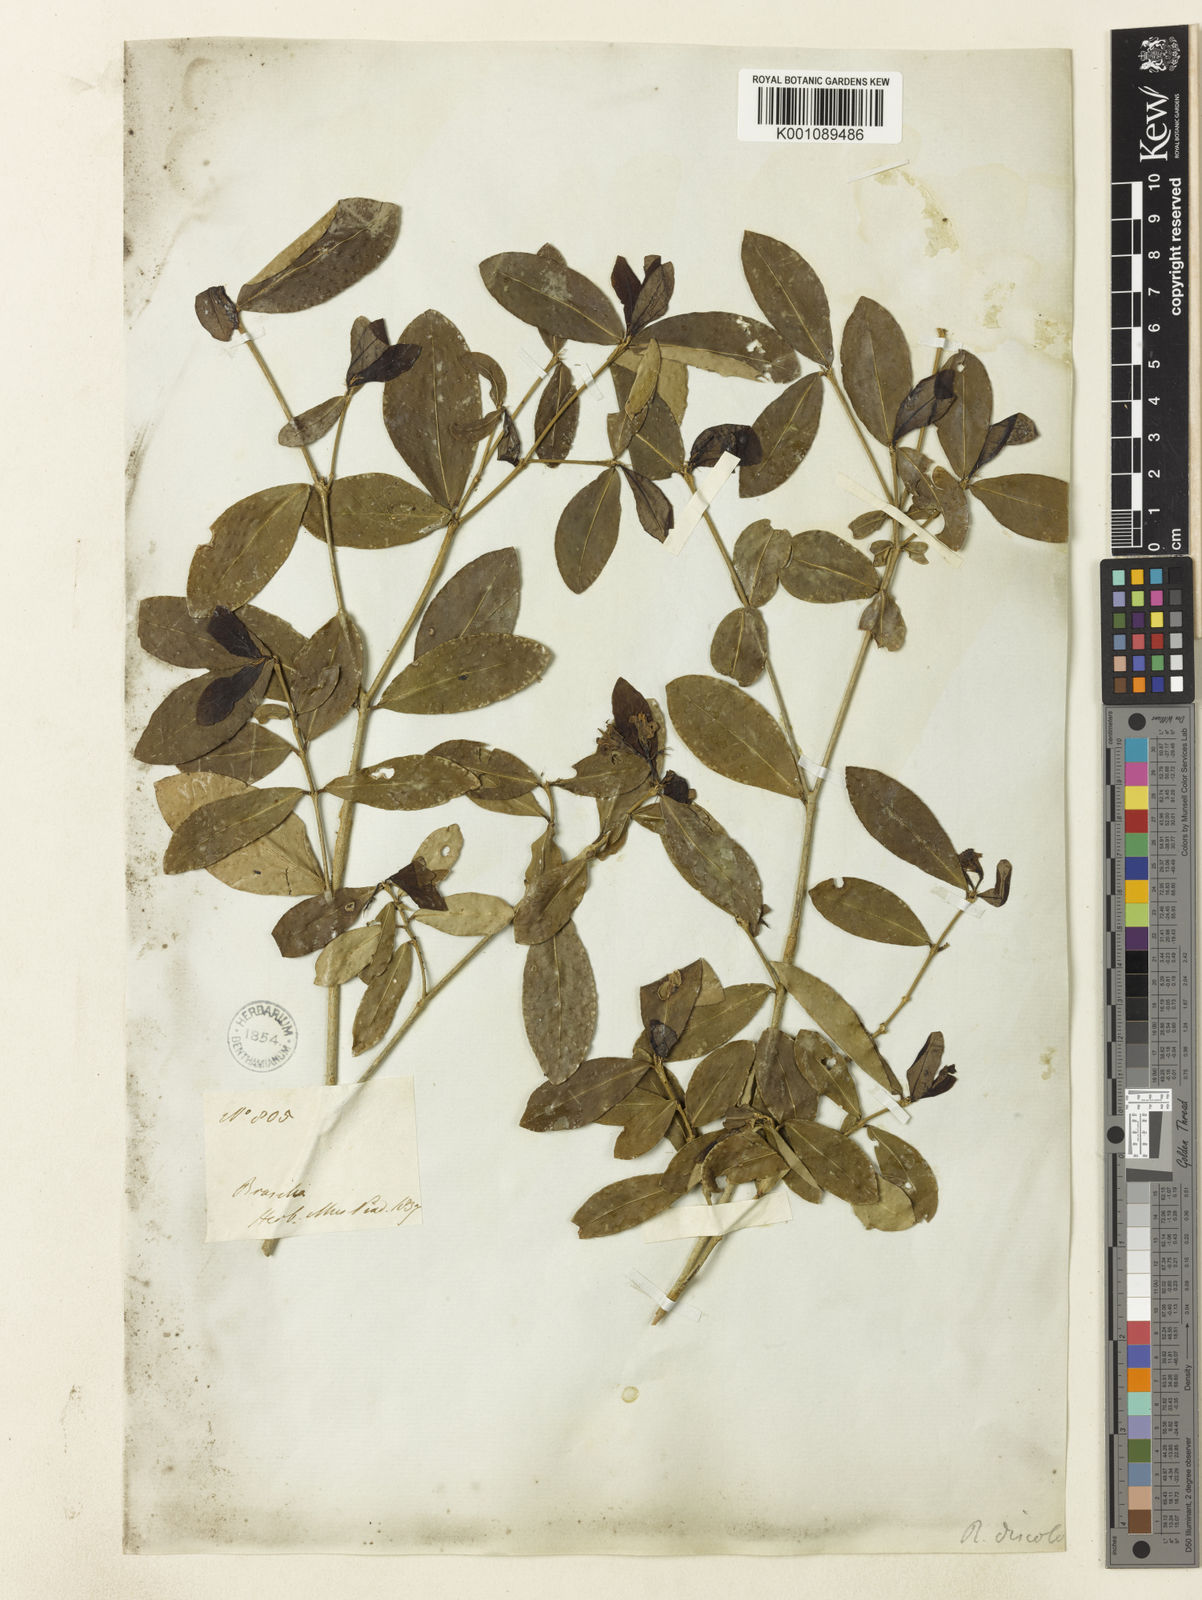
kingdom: Plantae
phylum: Tracheophyta
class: Magnoliopsida
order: Gentianales
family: Rubiaceae
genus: Rudgea
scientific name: Rudgea discolor
